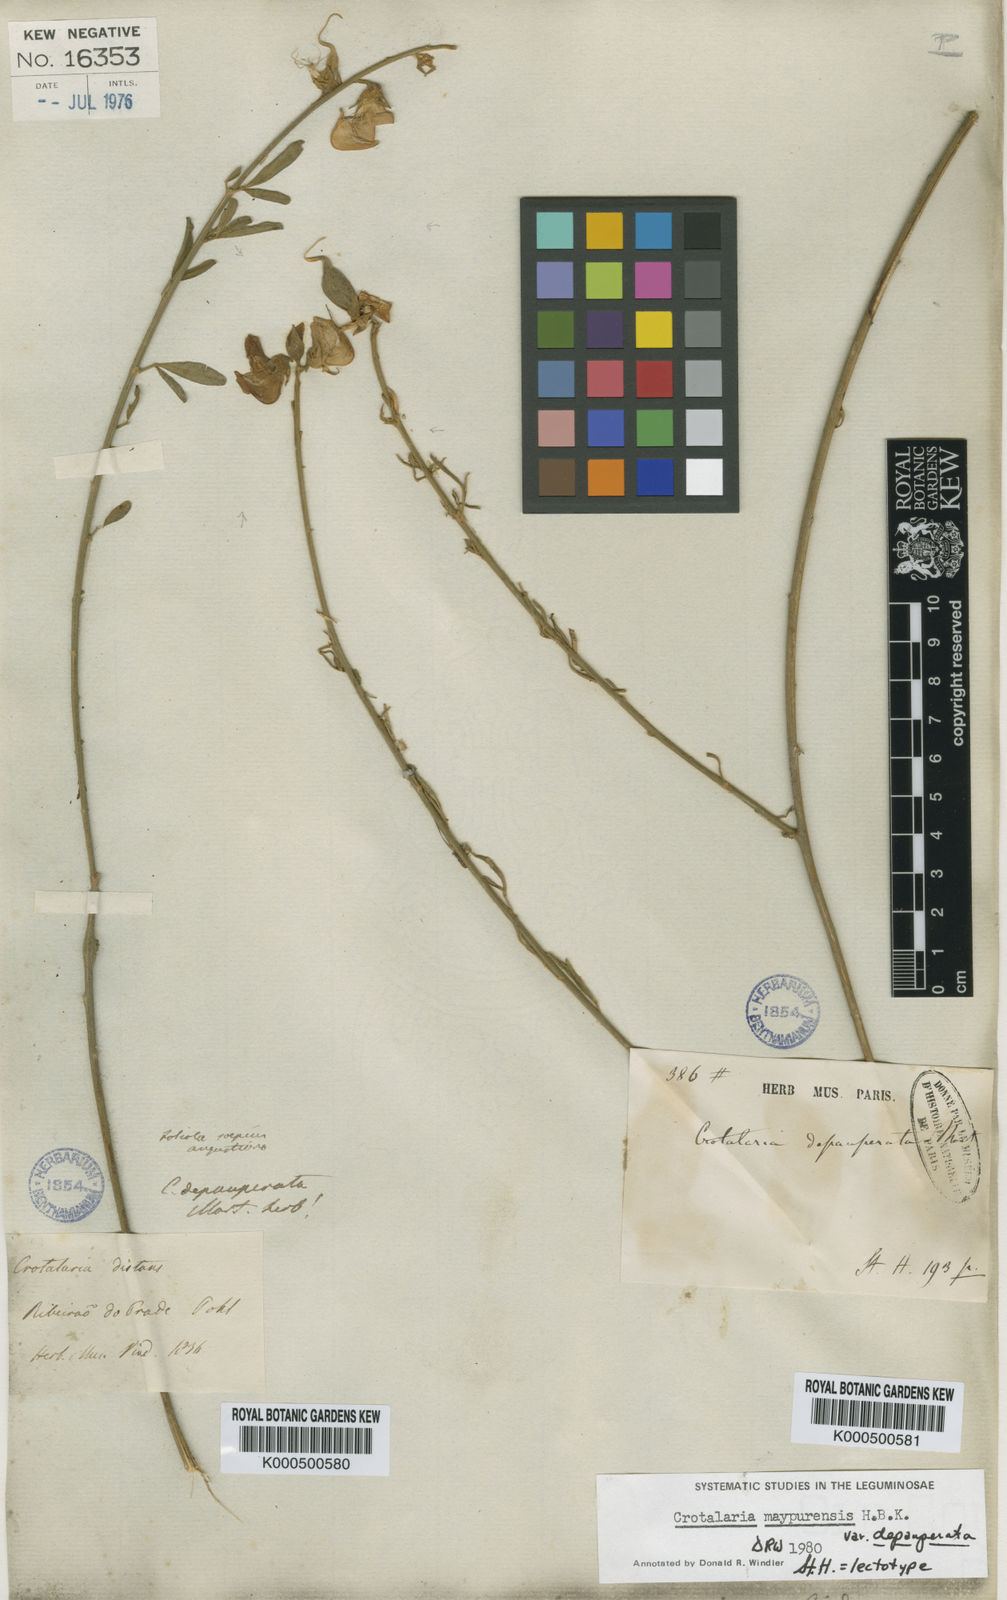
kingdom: Plantae
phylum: Tracheophyta
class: Magnoliopsida
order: Fabales
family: Fabaceae
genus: Crotalaria
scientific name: Crotalaria
